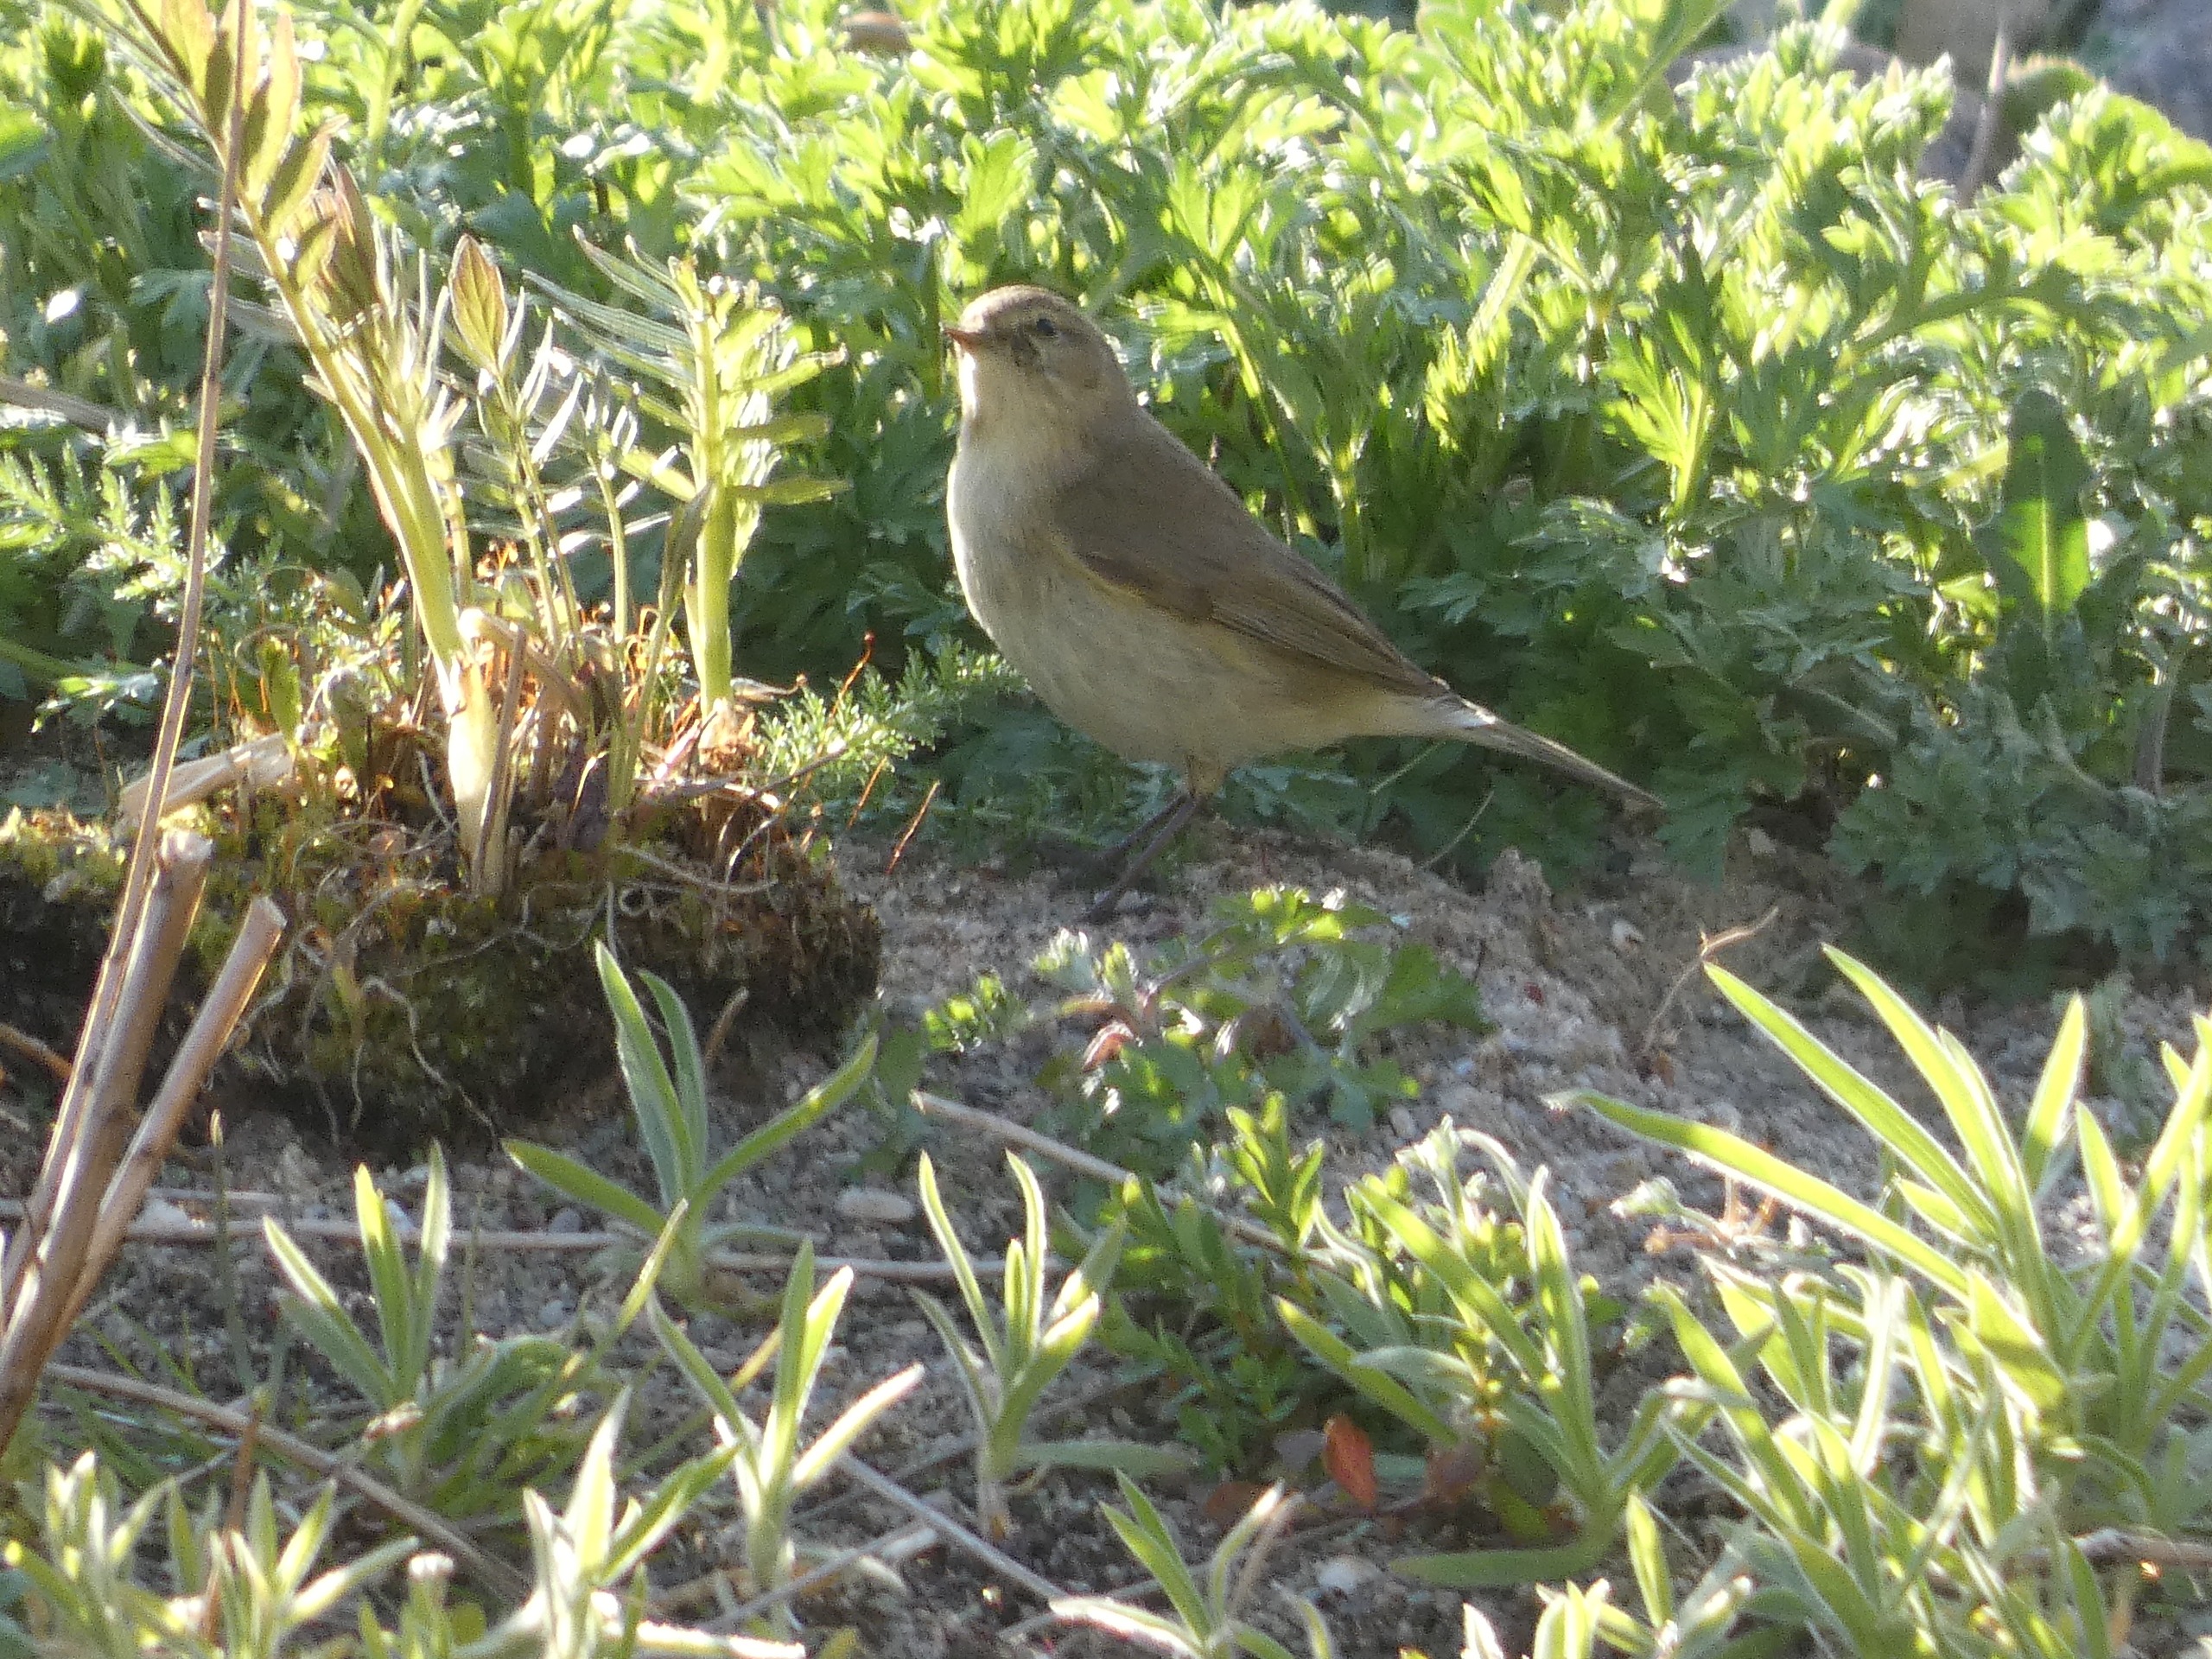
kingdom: Animalia
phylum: Chordata
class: Aves
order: Passeriformes
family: Phylloscopidae
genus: Phylloscopus
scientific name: Phylloscopus collybita
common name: Gransanger
